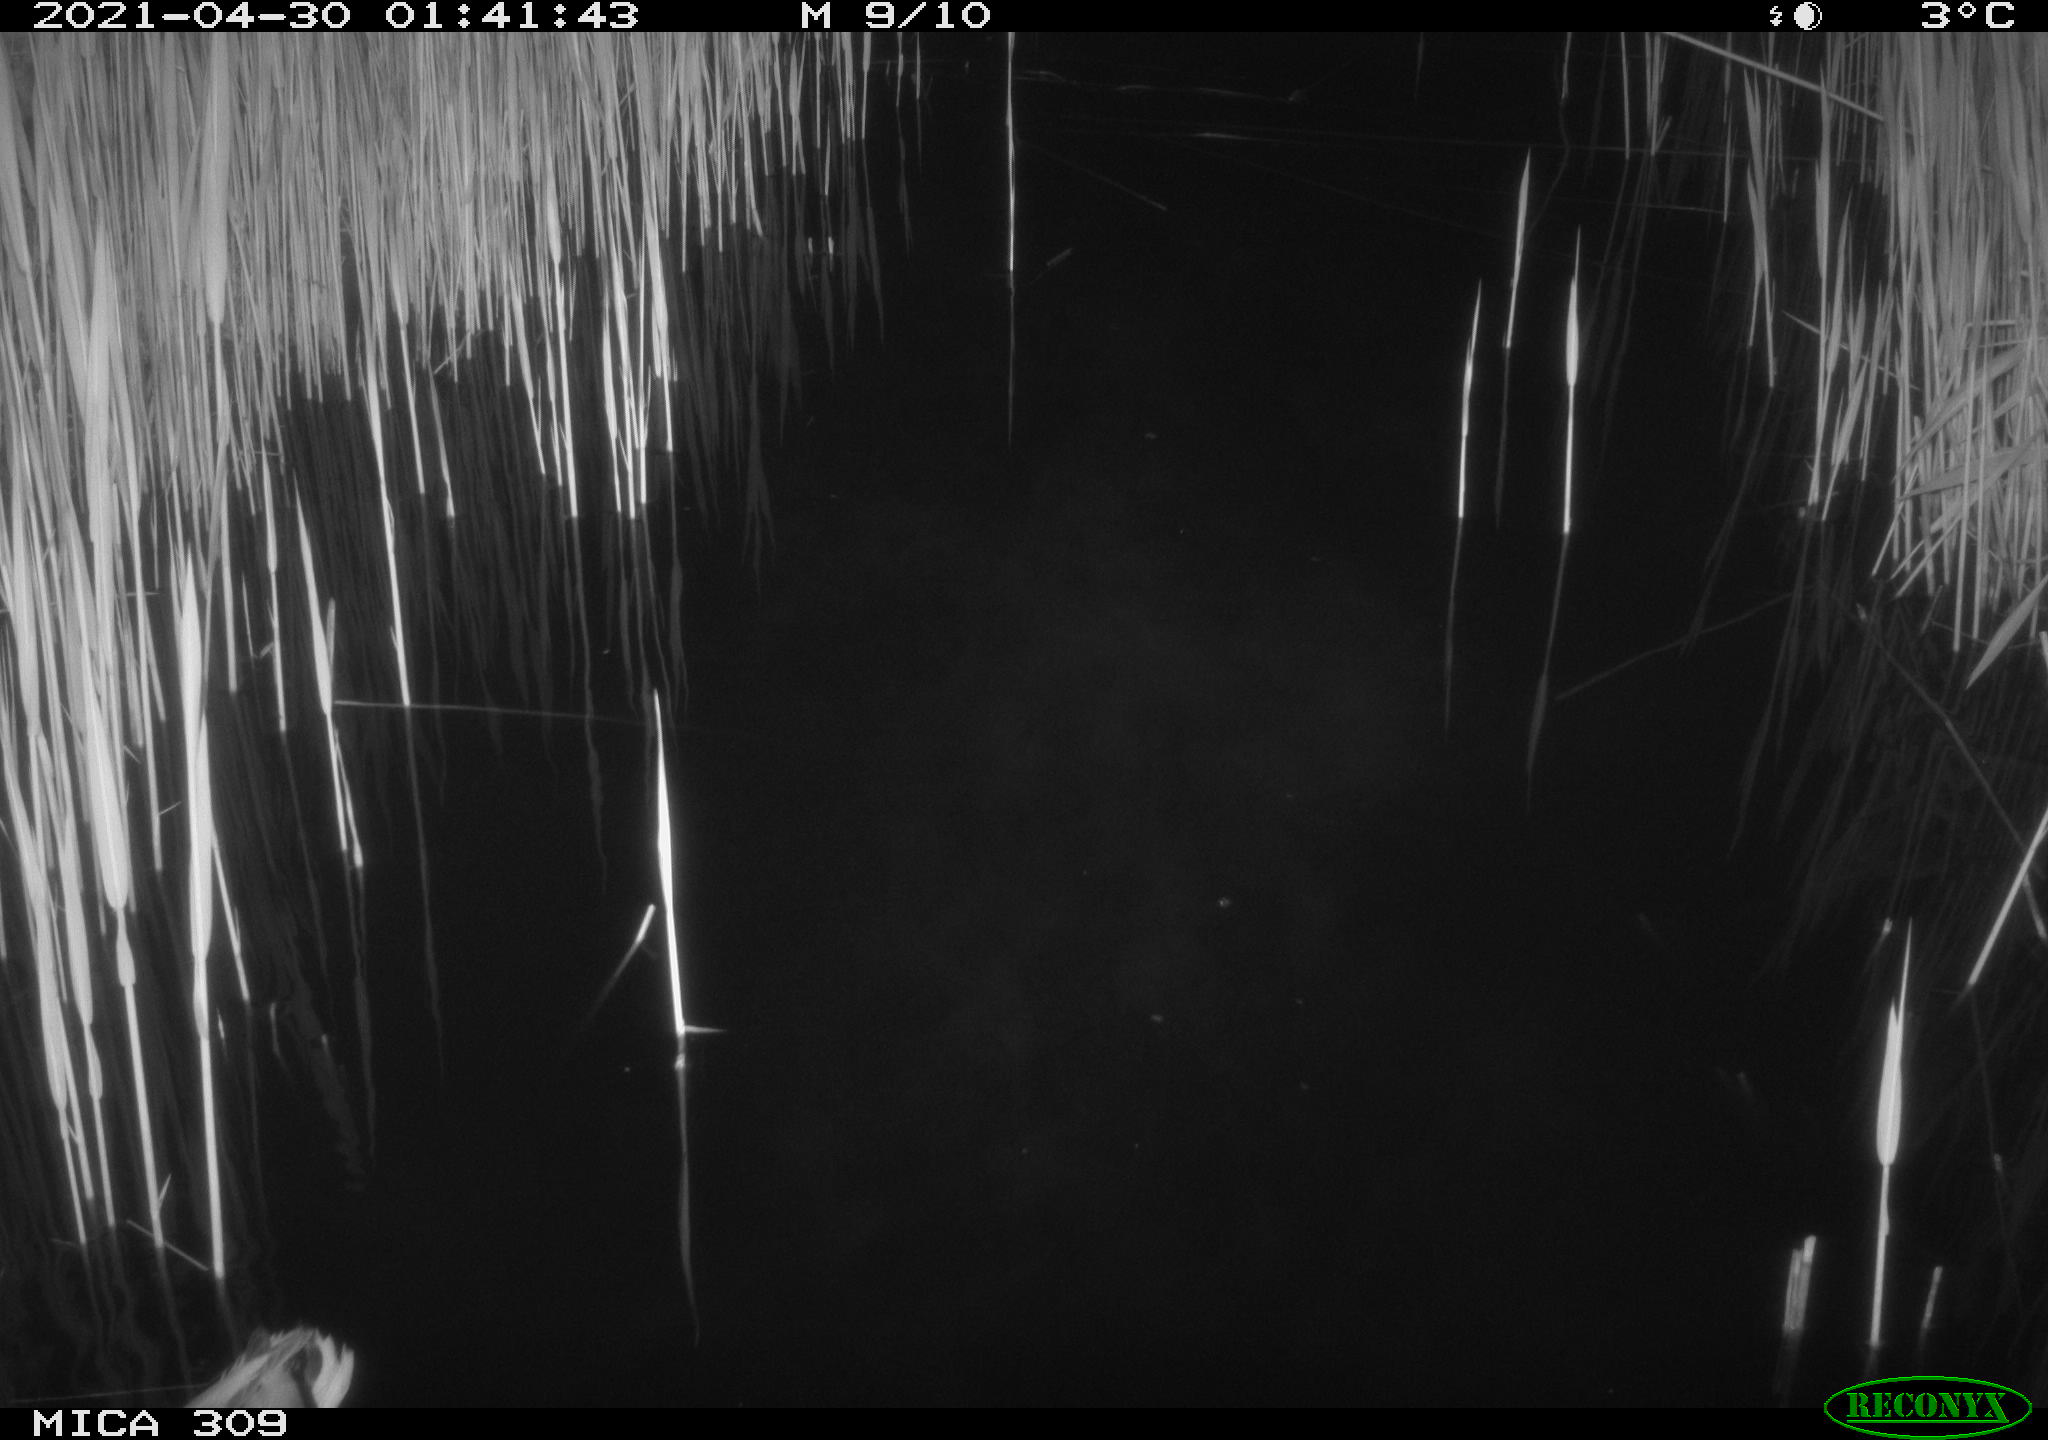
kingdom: Animalia
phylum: Chordata
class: Aves
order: Gruiformes
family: Rallidae
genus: Gallinula
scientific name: Gallinula chloropus
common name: Common moorhen
